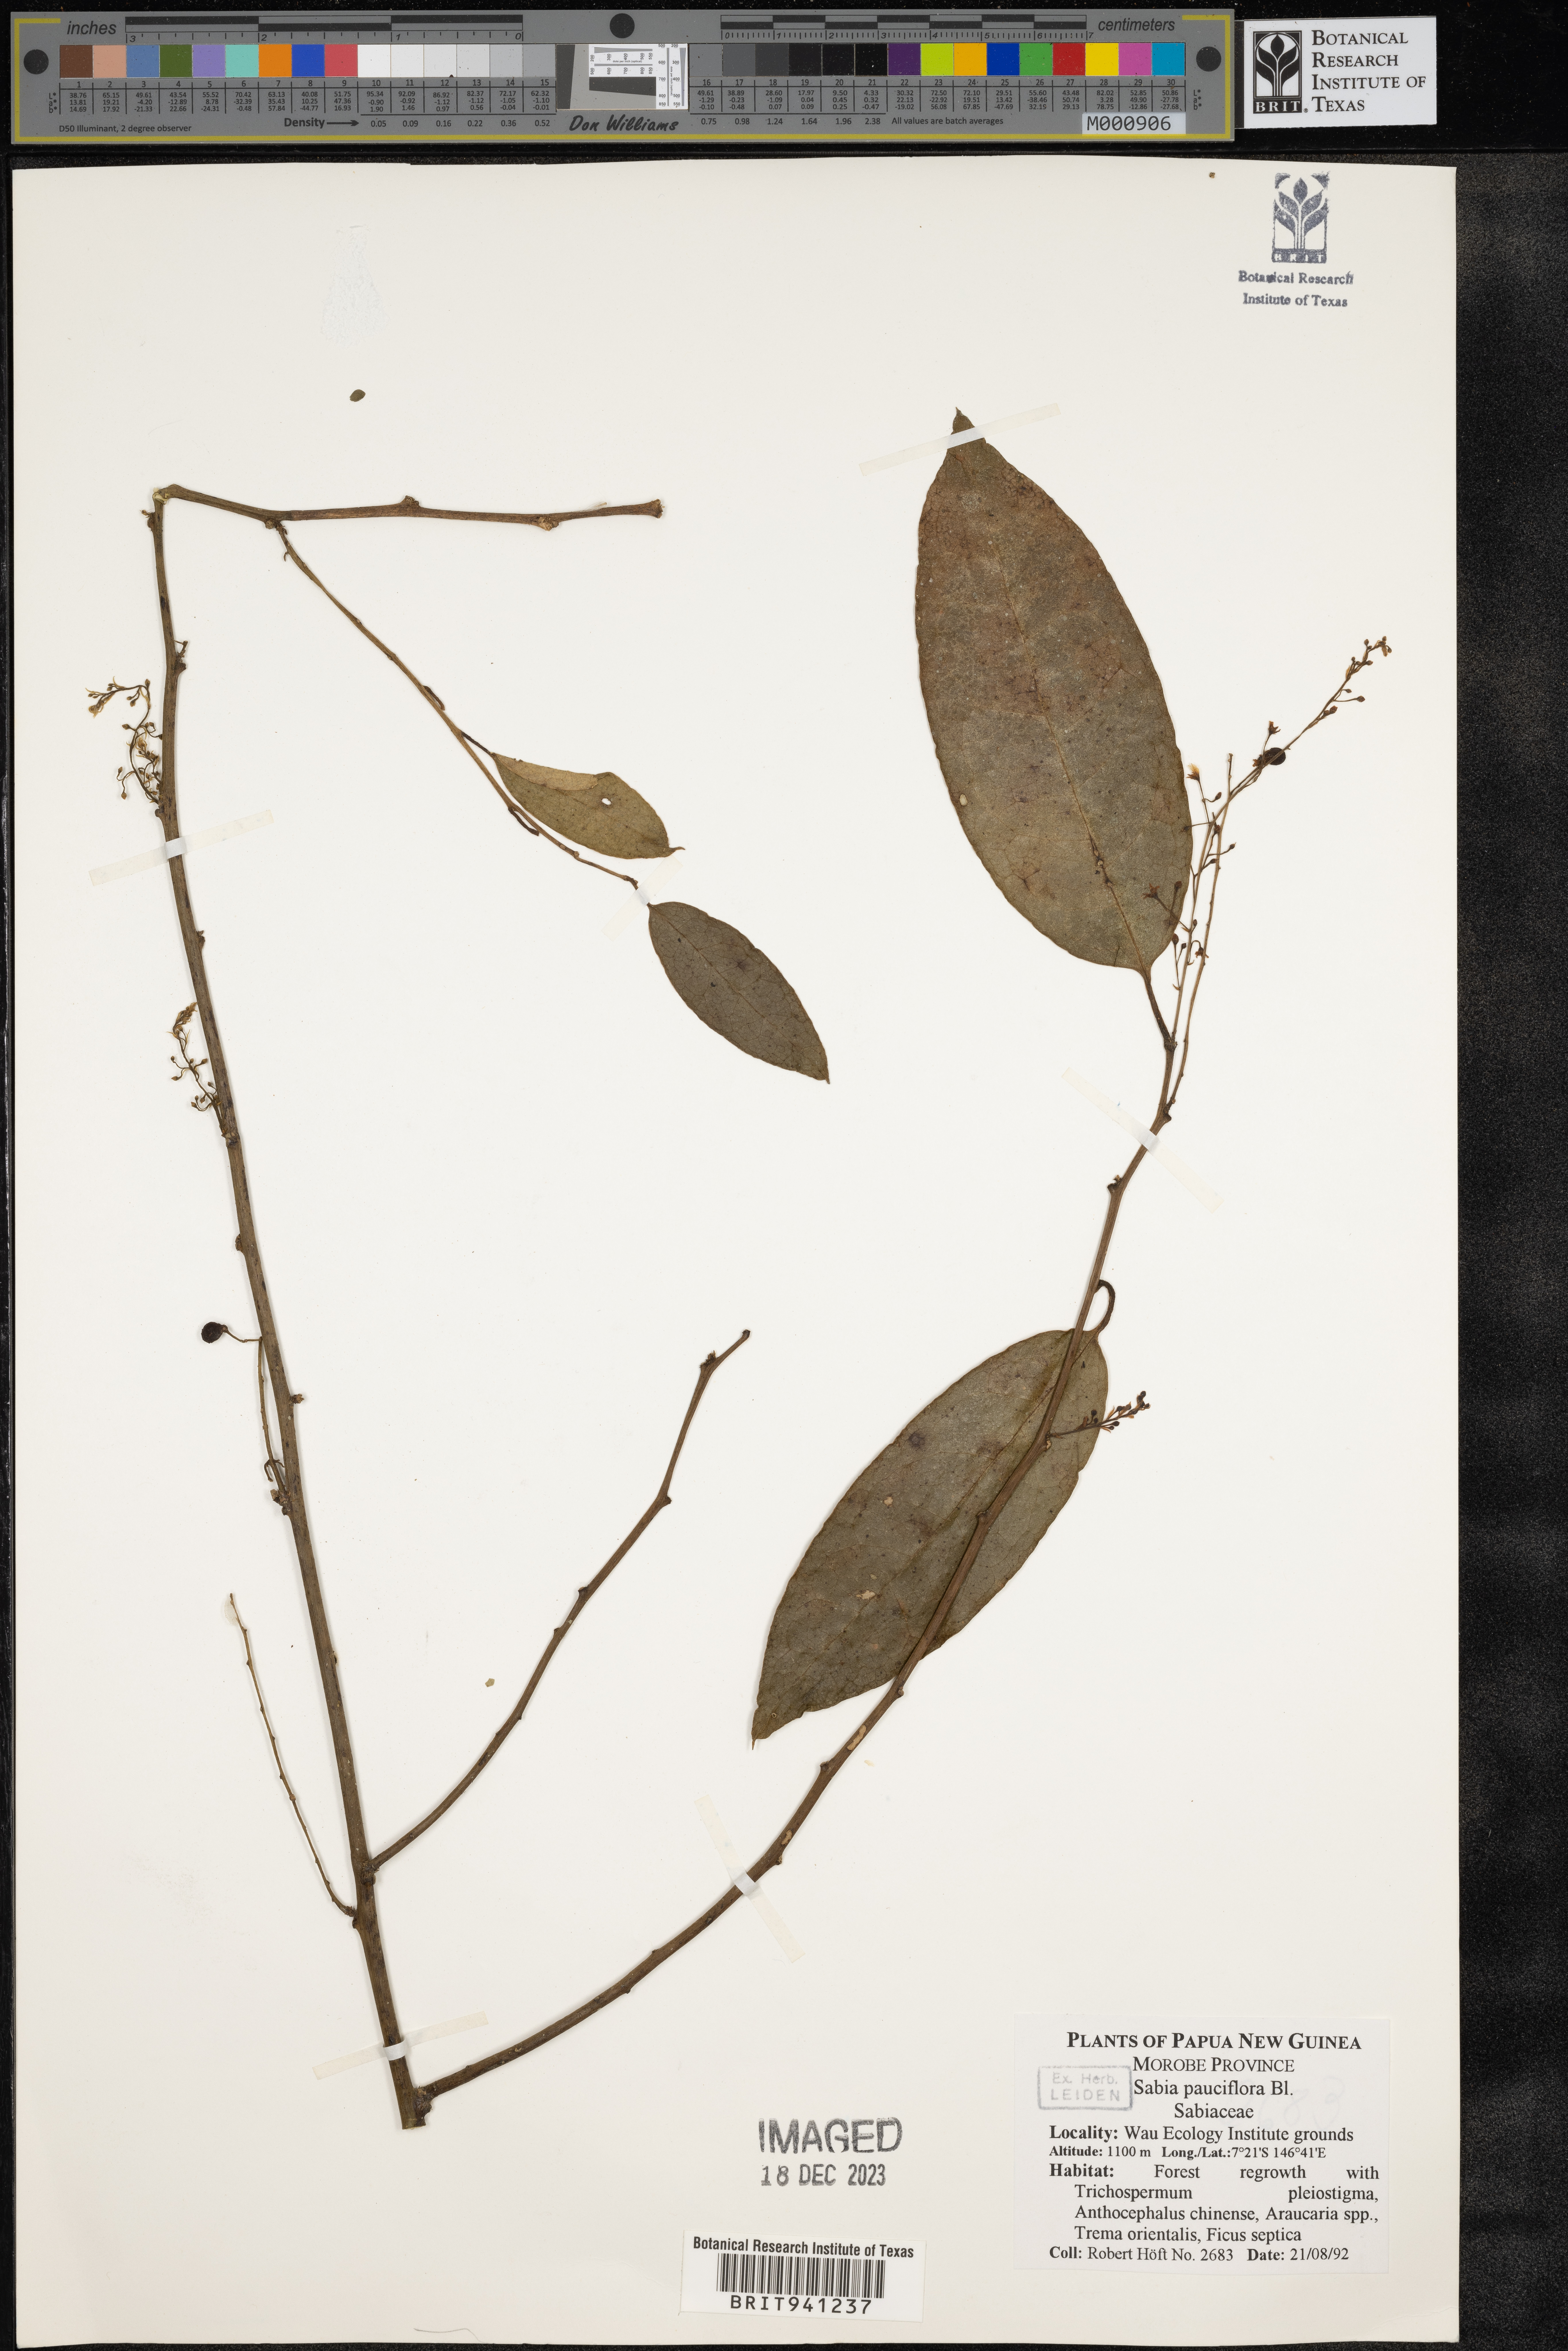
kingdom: Plantae
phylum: Tracheophyta
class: Magnoliopsida
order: Proteales
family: Sabiaceae
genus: Sabia
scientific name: Sabia
